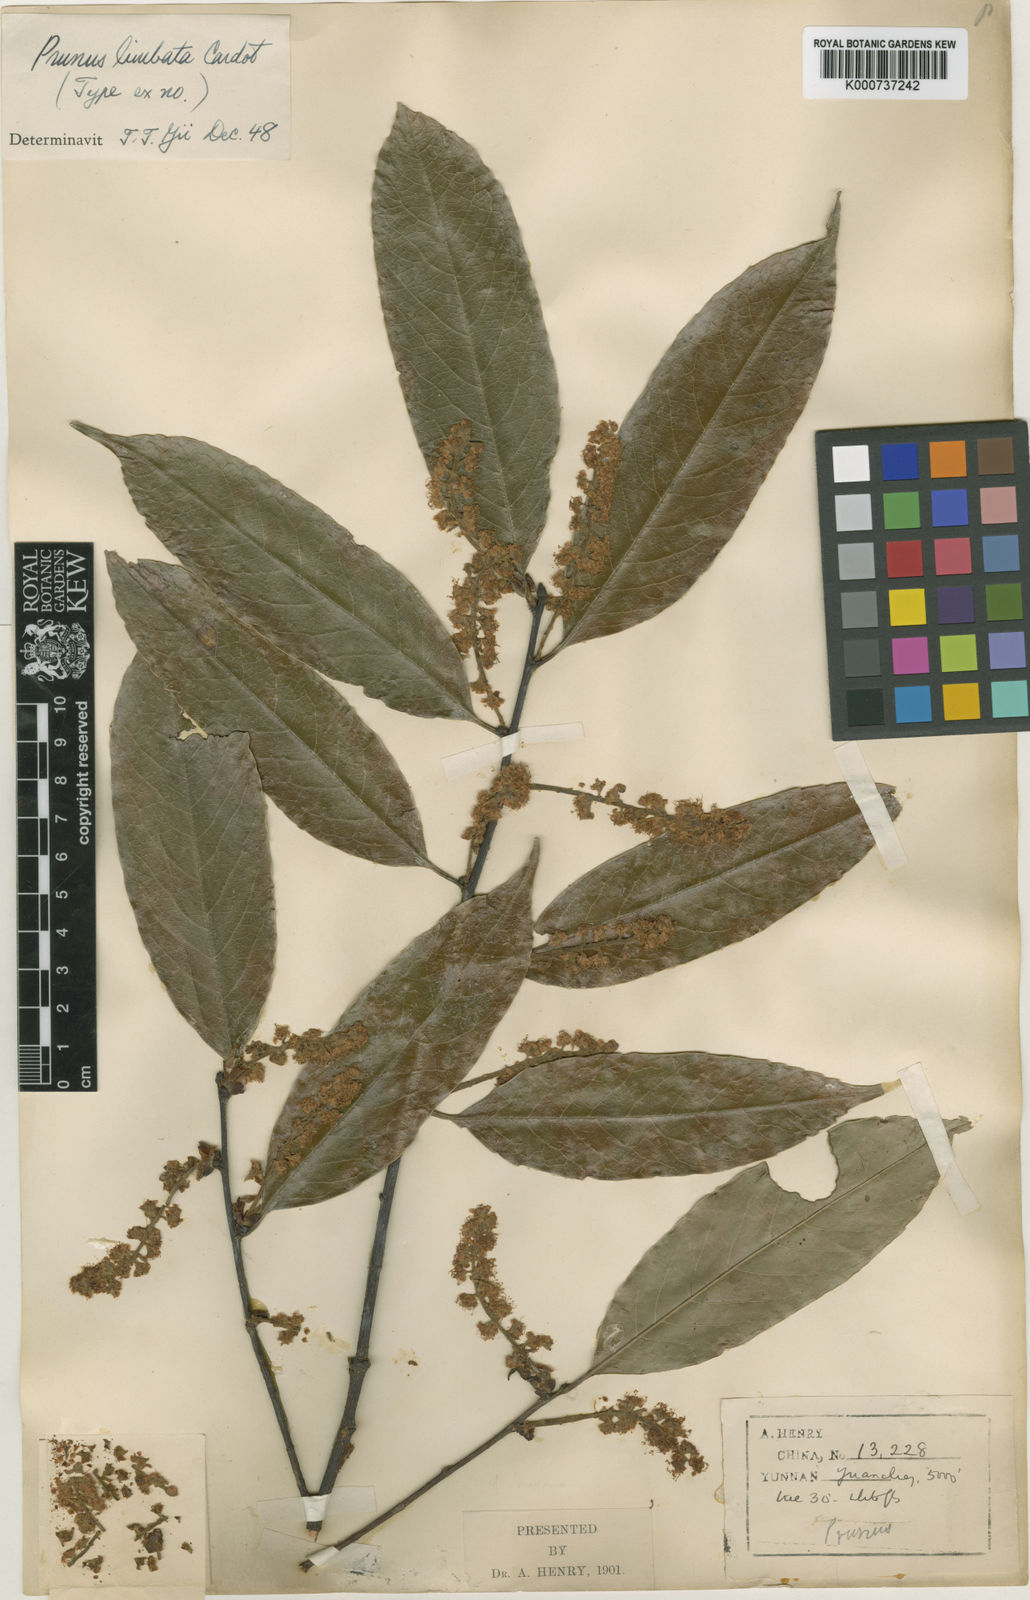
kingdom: Plantae
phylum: Tracheophyta
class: Magnoliopsida
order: Rosales
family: Rosaceae
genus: Prunus
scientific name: Prunus spinulosa
